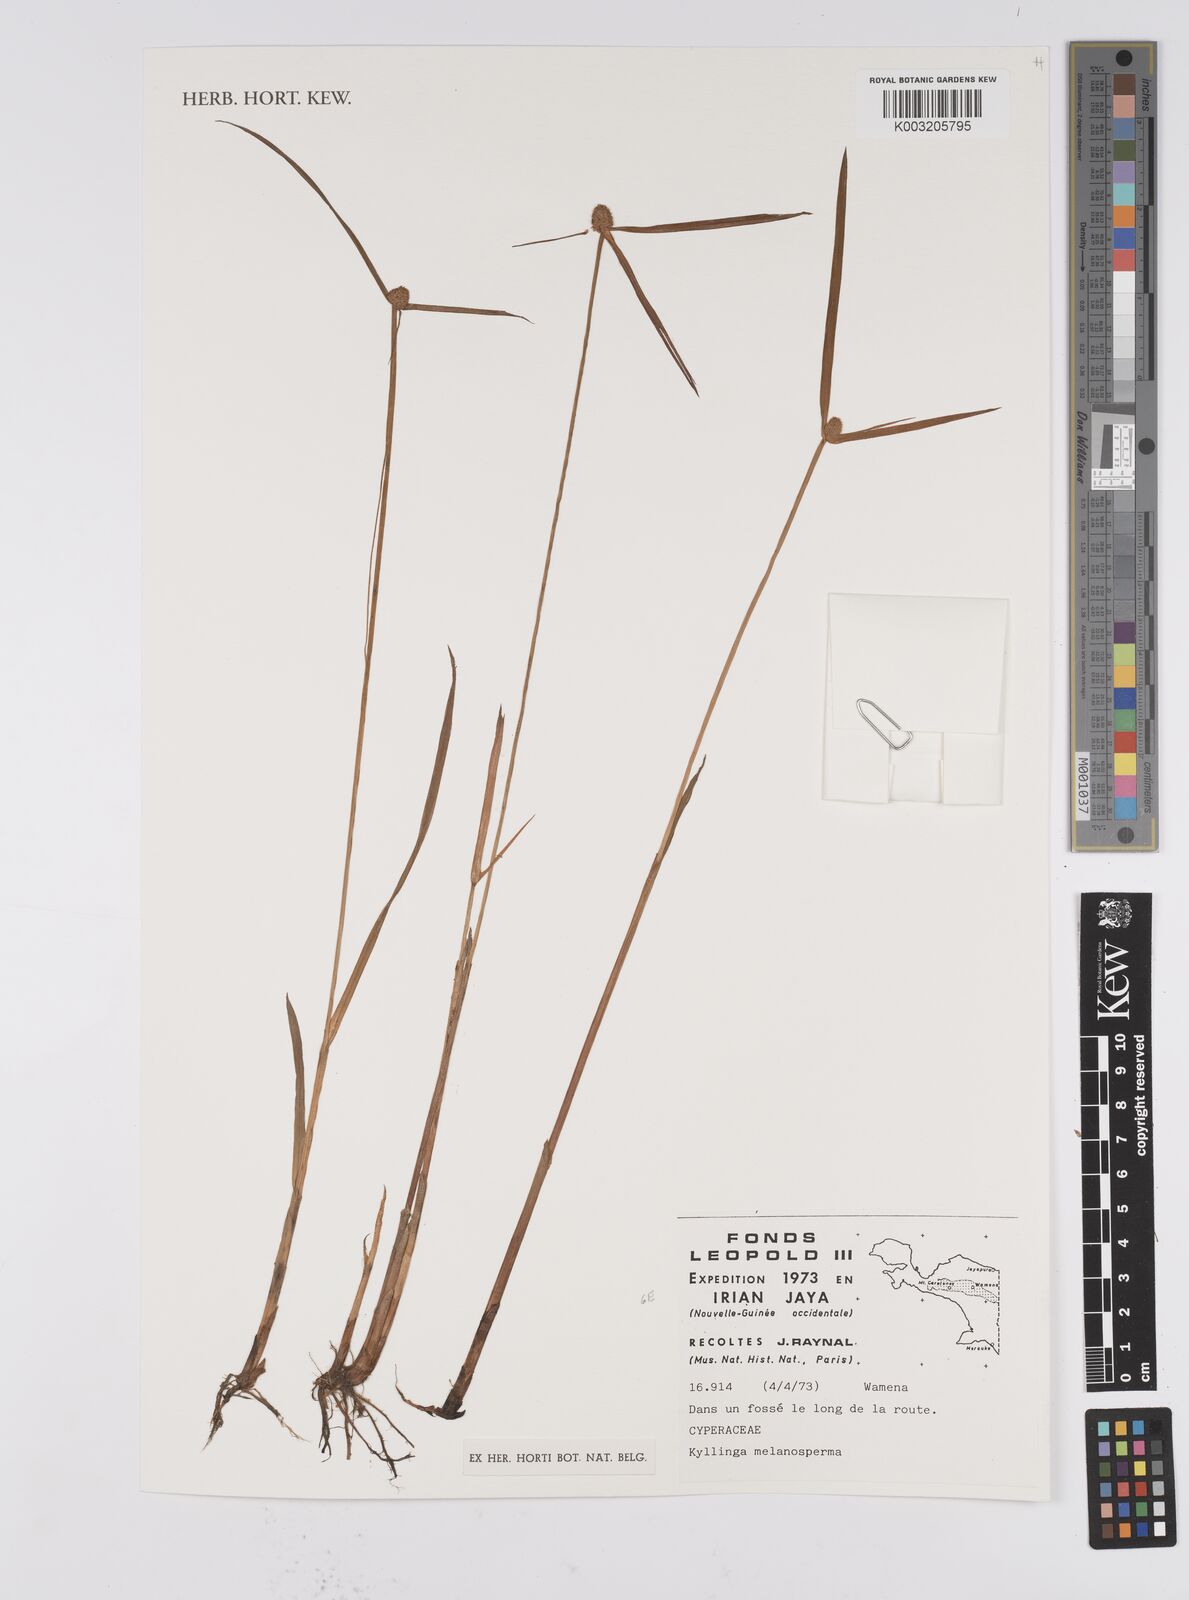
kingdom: Plantae
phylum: Tracheophyta
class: Liliopsida
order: Poales
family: Cyperaceae
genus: Cyperus
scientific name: Cyperus melanospermus
